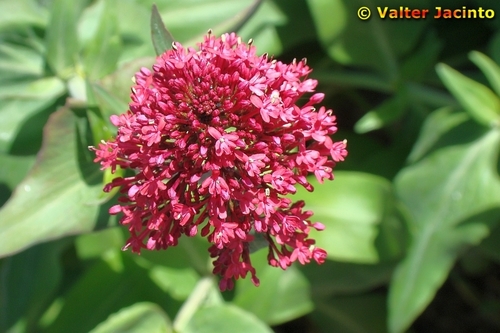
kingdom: Plantae
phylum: Tracheophyta
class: Magnoliopsida
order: Dipsacales
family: Caprifoliaceae
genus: Centranthus
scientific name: Centranthus ruber
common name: Red valerian
